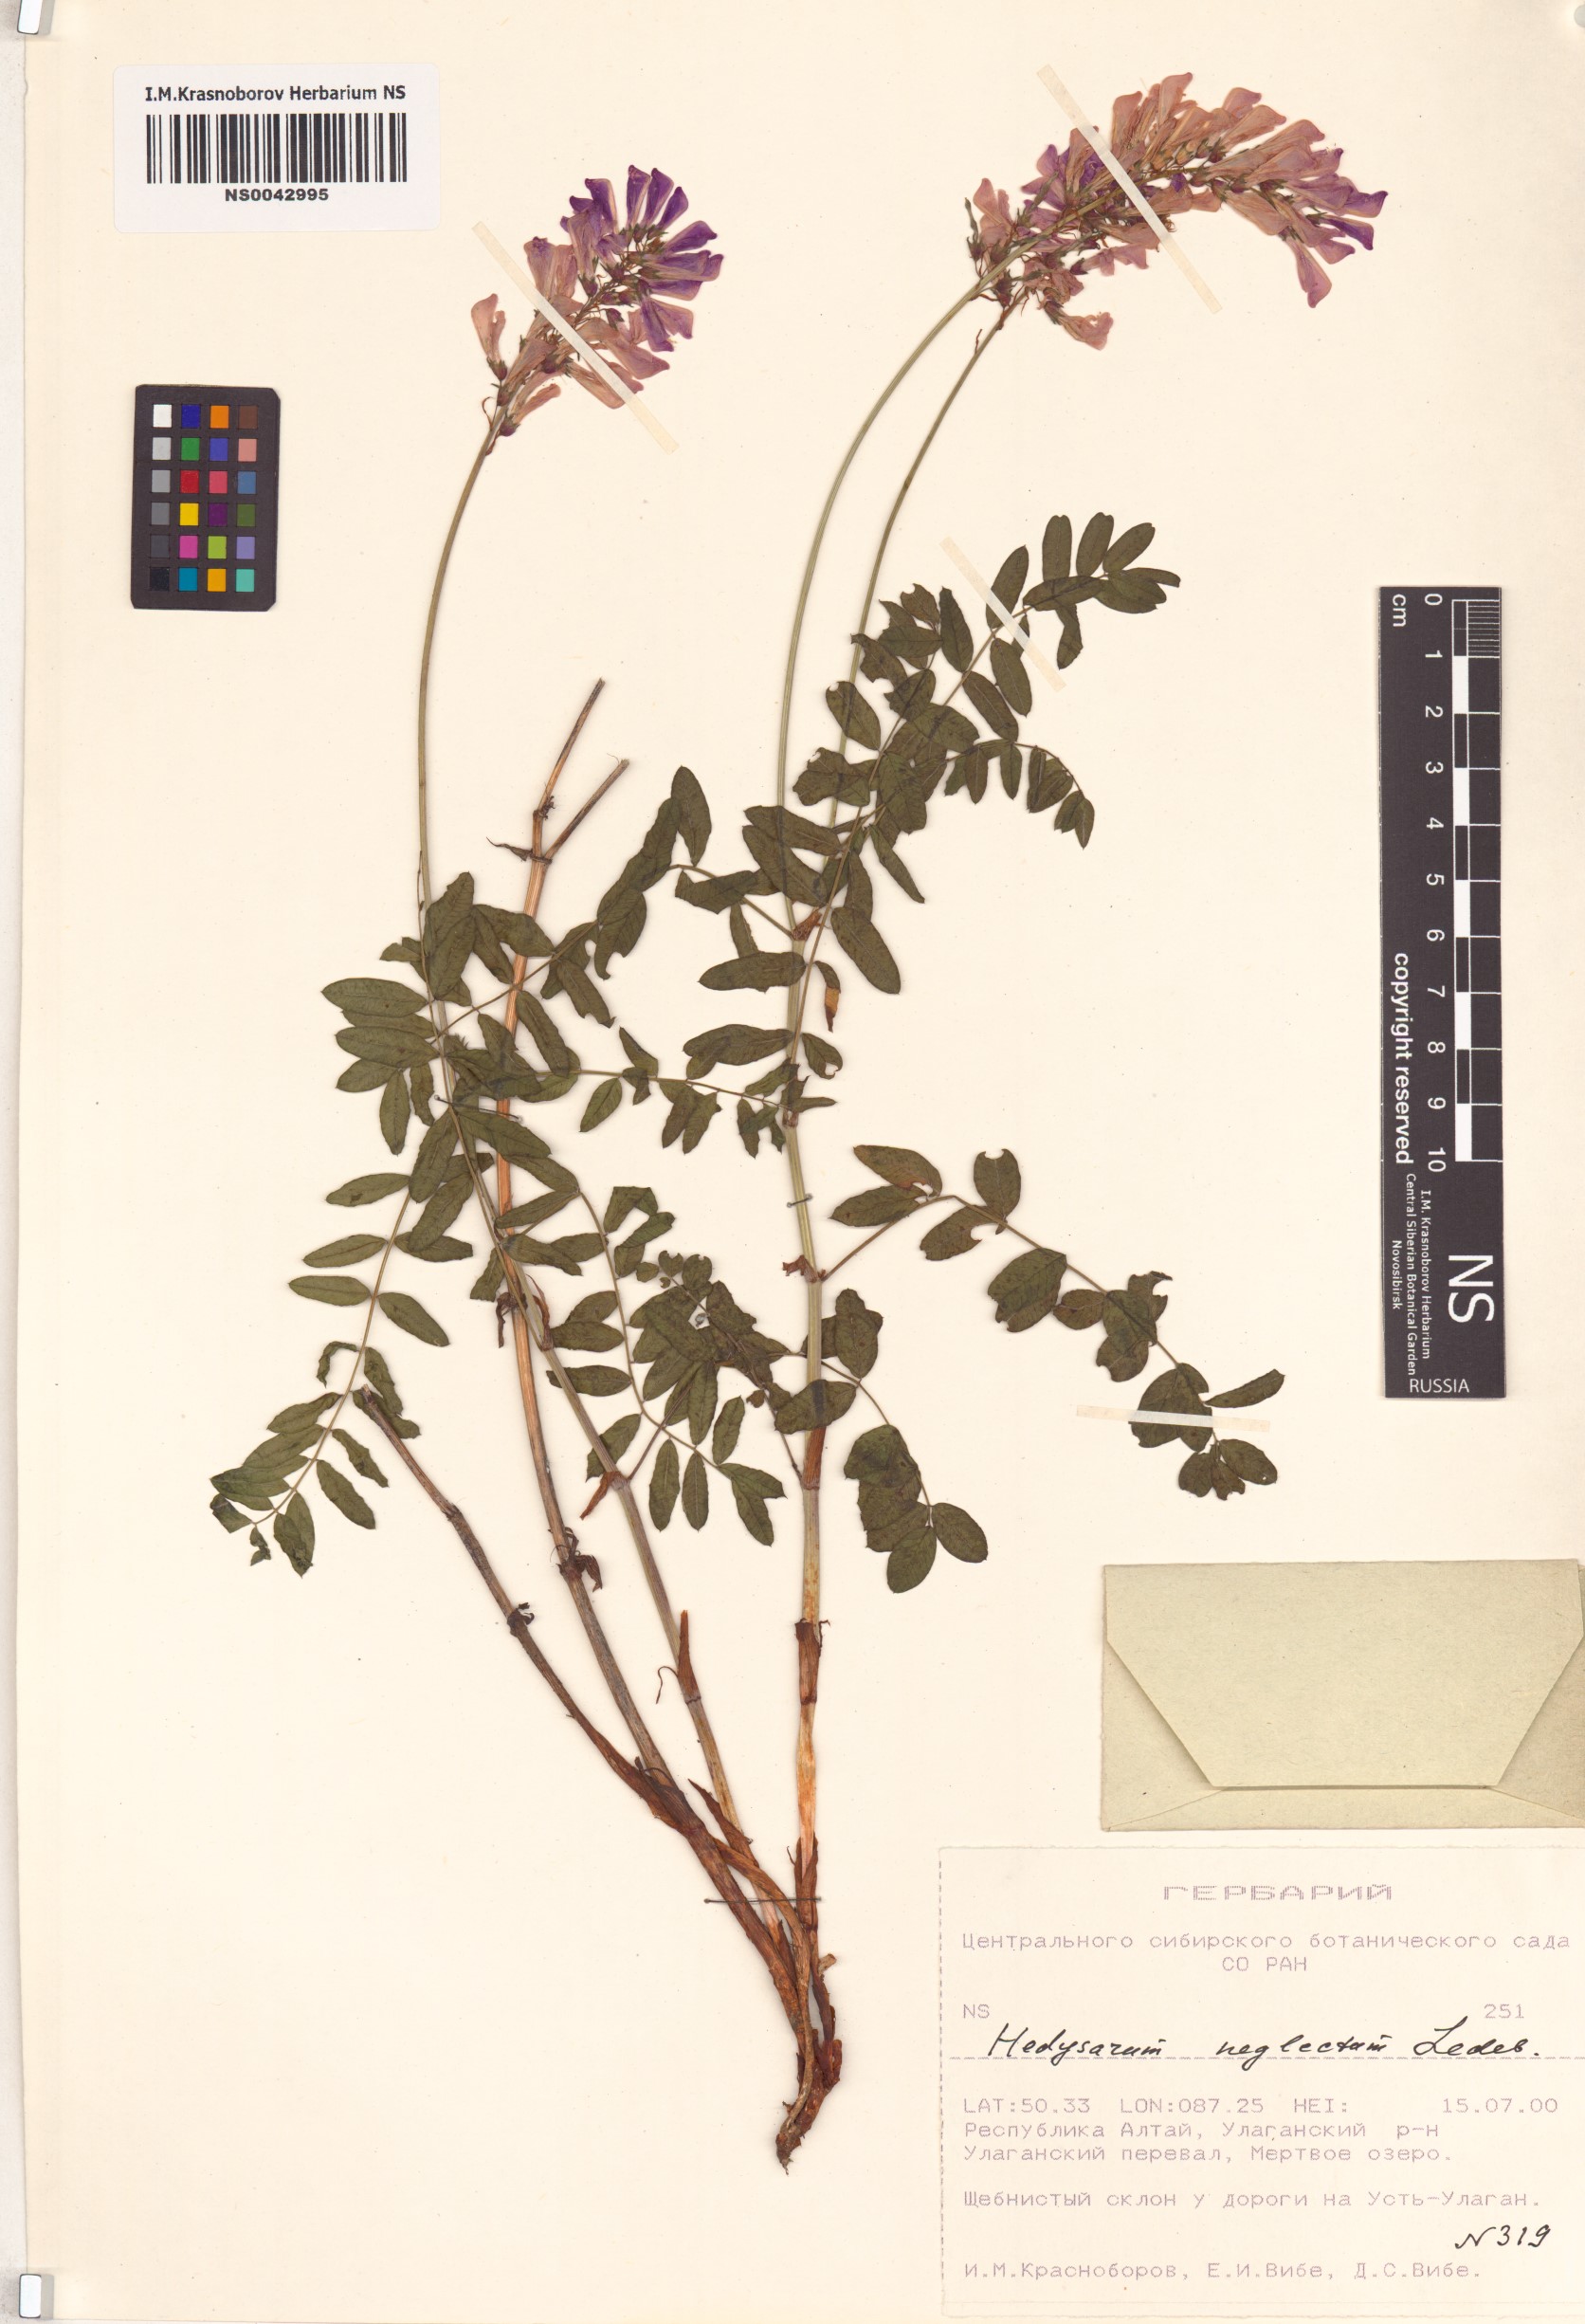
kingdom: Plantae
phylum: Tracheophyta
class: Magnoliopsida
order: Fabales
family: Fabaceae
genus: Hedysarum
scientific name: Hedysarum neglectum
